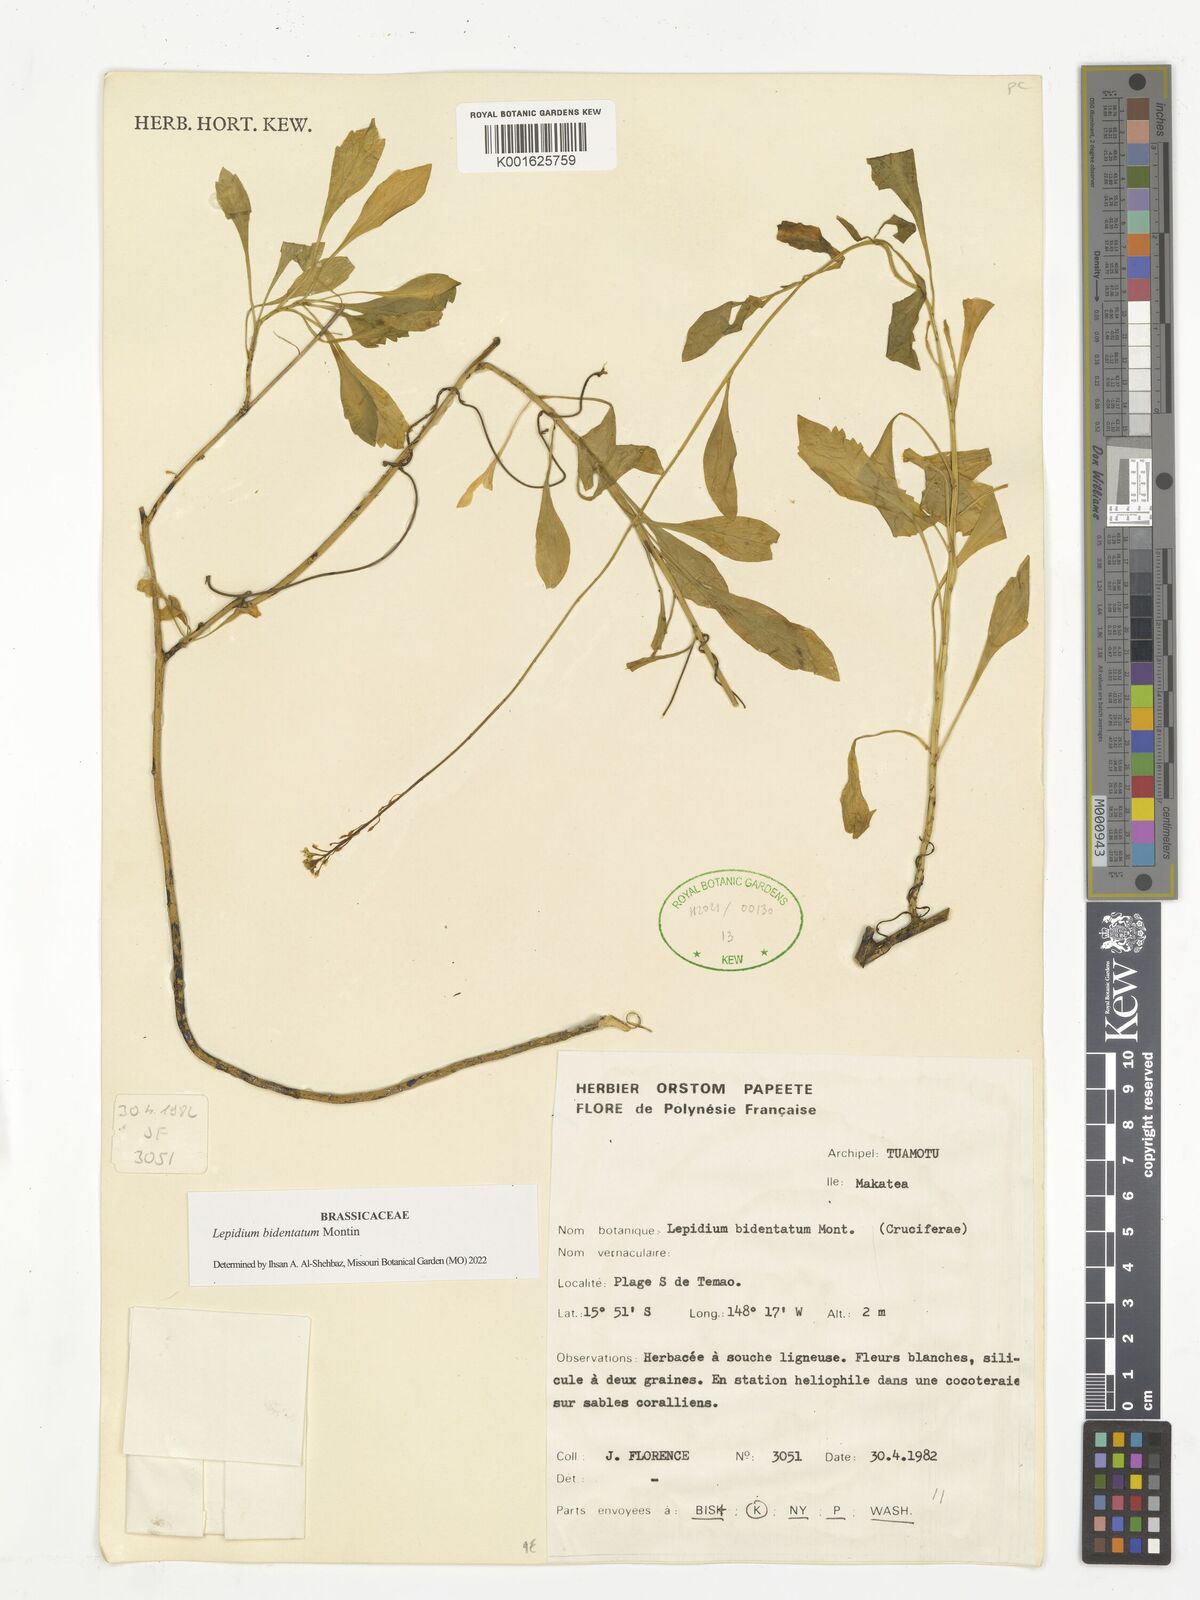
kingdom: Plantae
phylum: Tracheophyta
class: Magnoliopsida
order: Brassicales
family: Brassicaceae
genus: Lepidium
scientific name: Lepidium bidentatum
